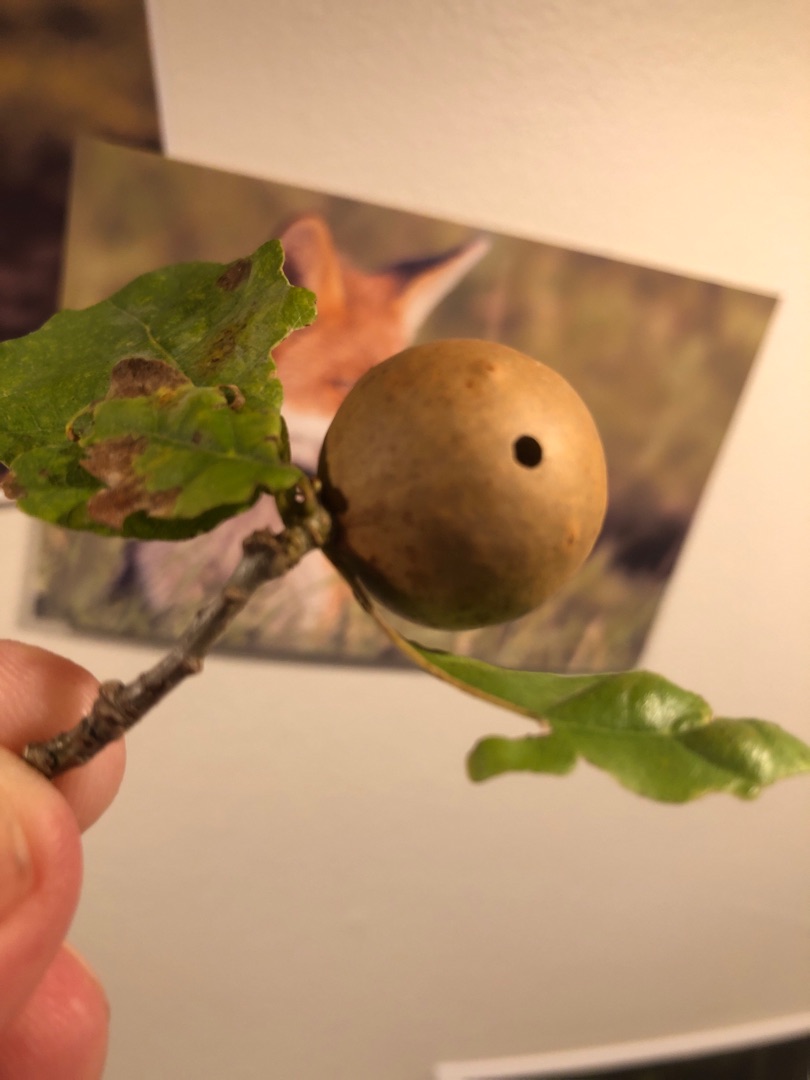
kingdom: Animalia
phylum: Arthropoda
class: Insecta
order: Hymenoptera
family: Cynipidae
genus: Andricus
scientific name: Andricus kollari
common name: Marmorkugle-galhveps
